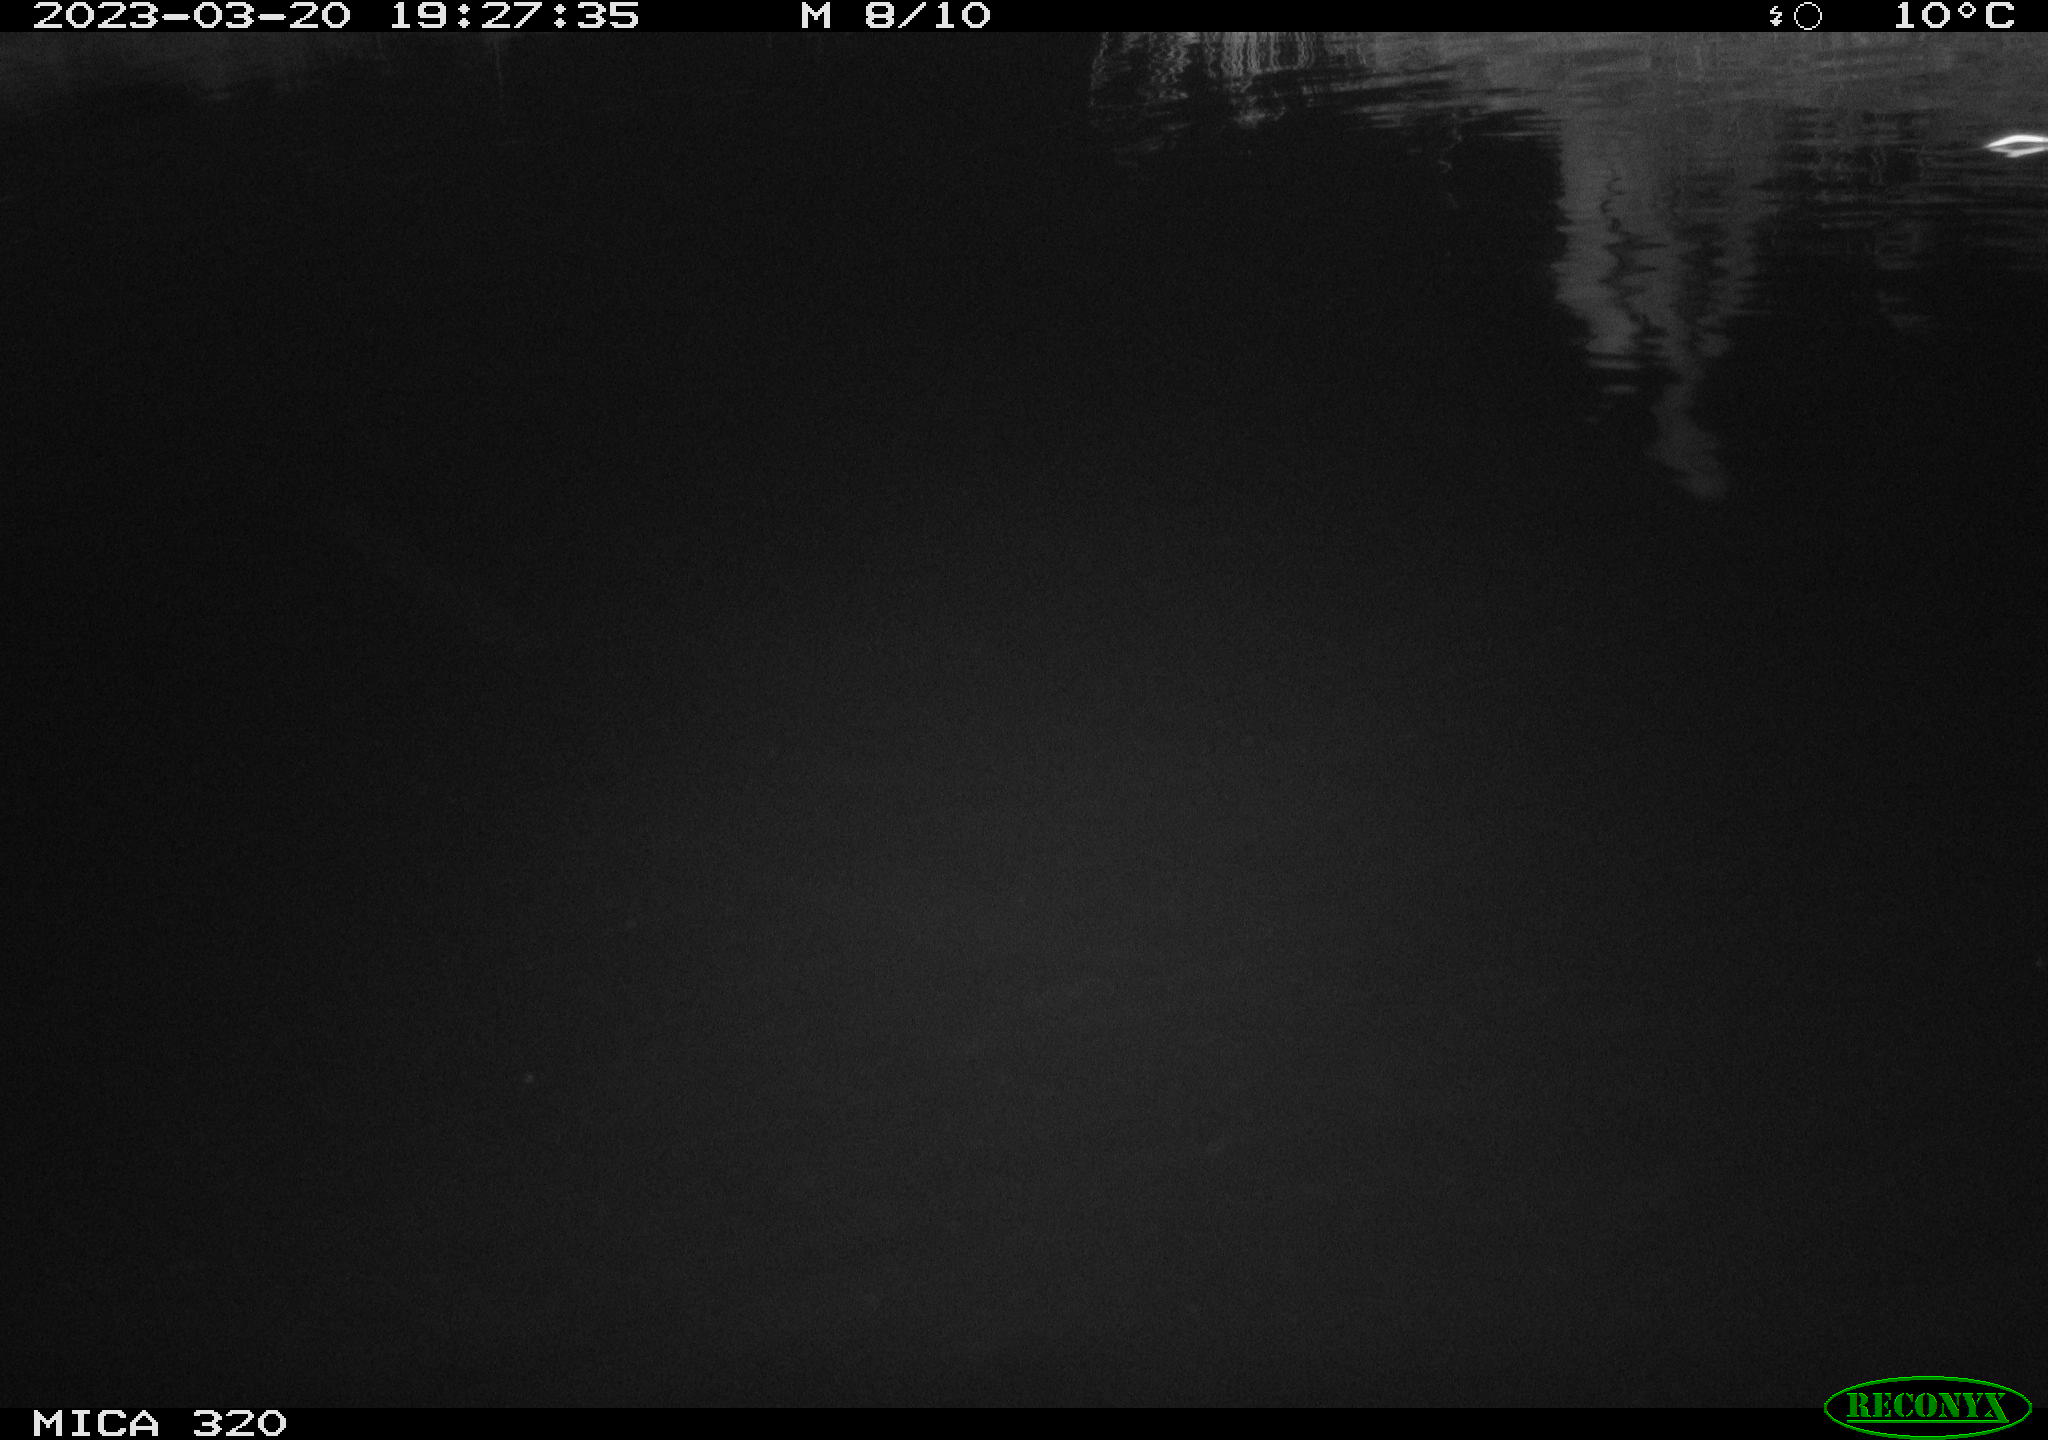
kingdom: Animalia
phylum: Chordata
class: Aves
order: Anseriformes
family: Anatidae
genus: Anas
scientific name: Anas
